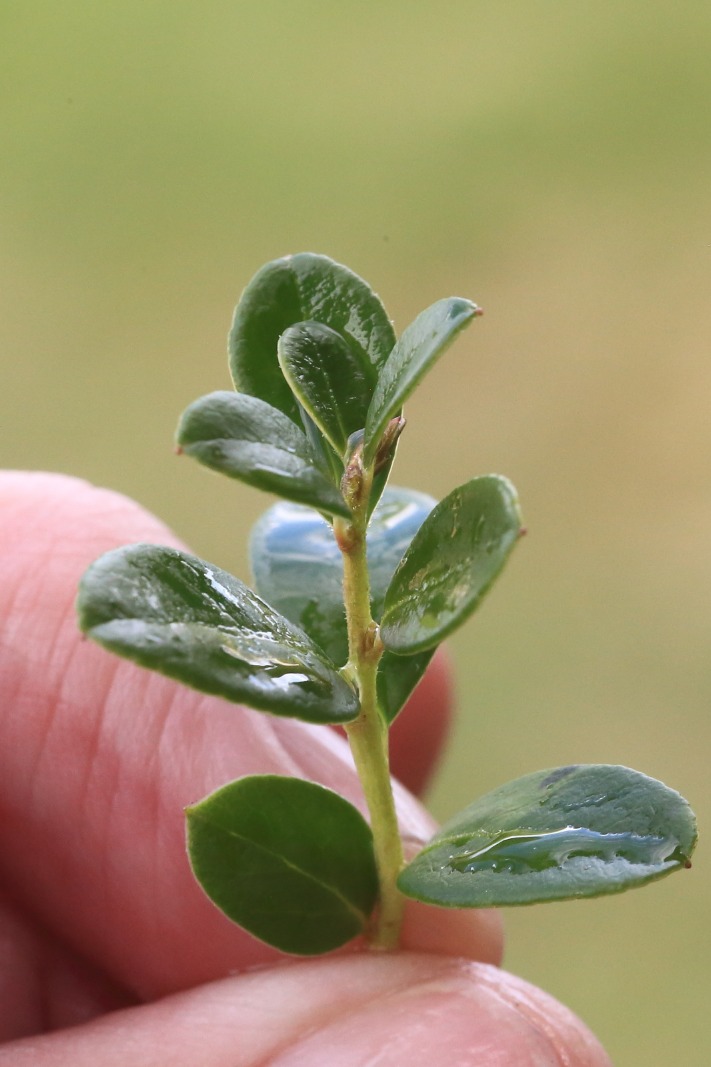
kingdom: Plantae
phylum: Tracheophyta
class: Magnoliopsida
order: Ericales
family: Ericaceae
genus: Vaccinium
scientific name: Vaccinium vitis-idaea
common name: Tyttebær
